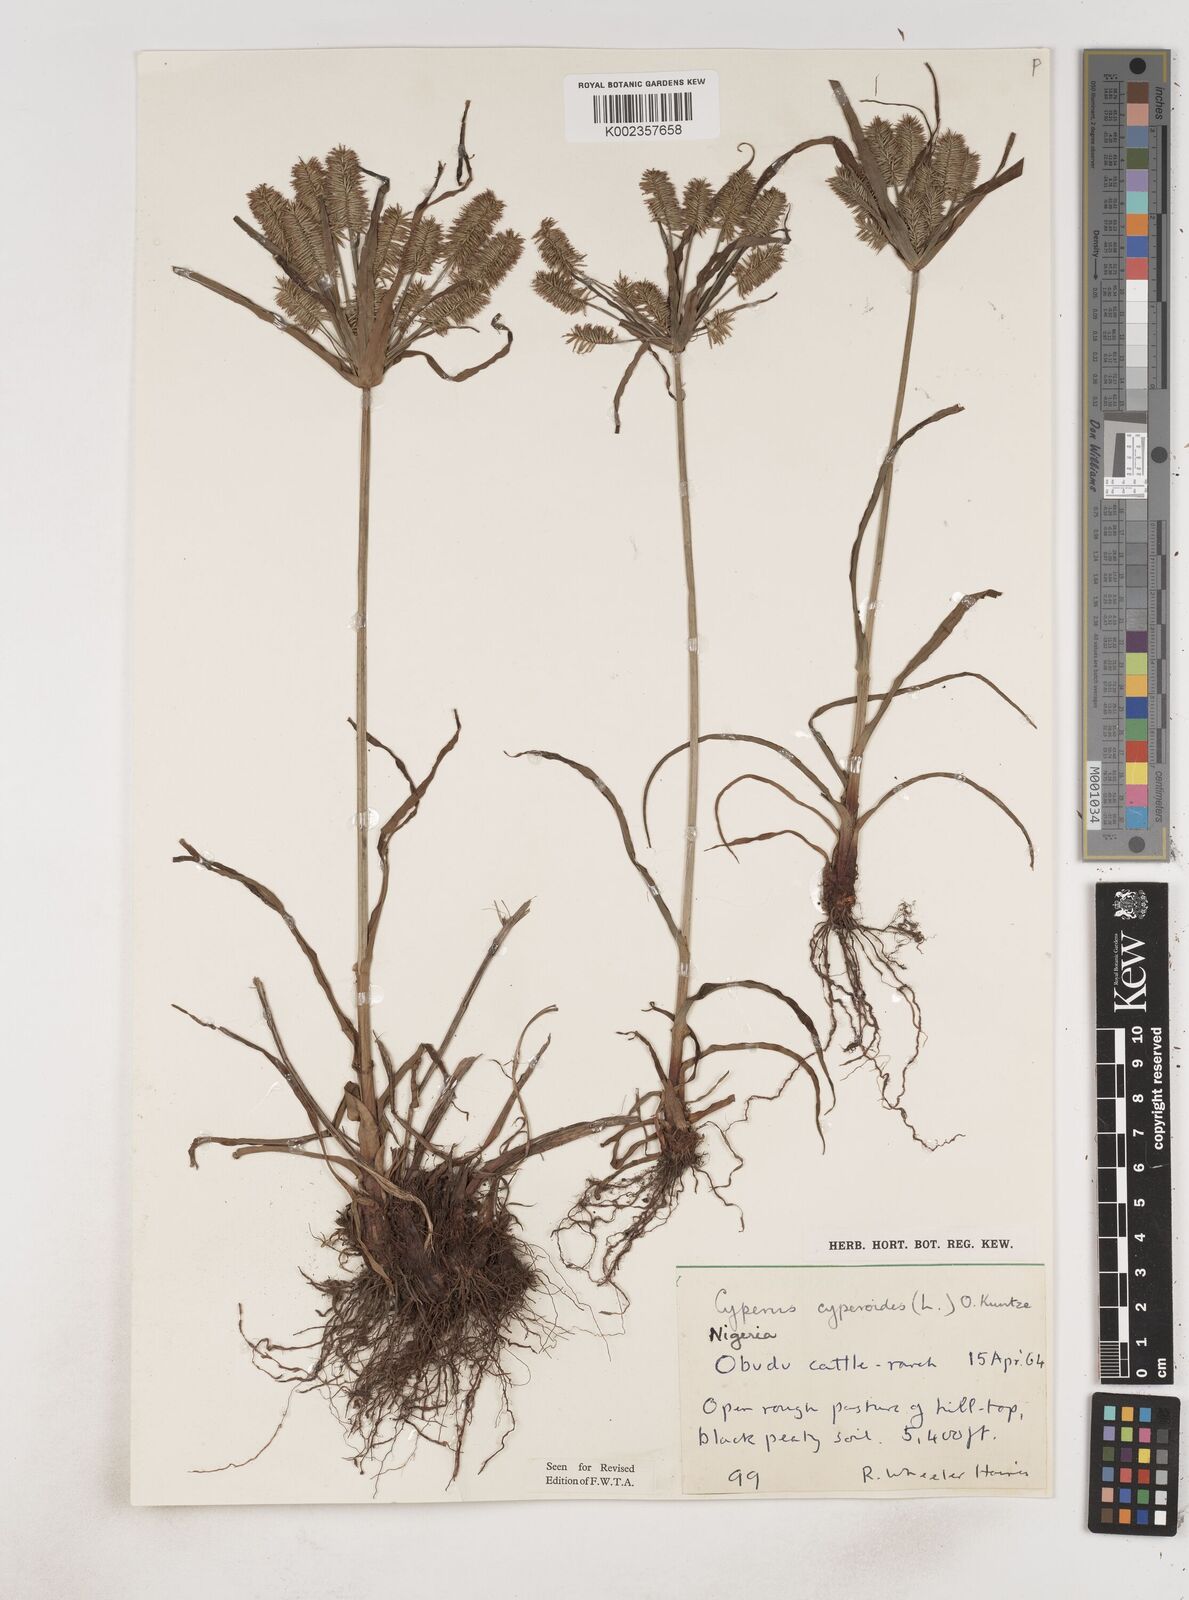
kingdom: Plantae
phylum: Tracheophyta
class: Liliopsida
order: Poales
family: Cyperaceae
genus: Cyperus
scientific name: Cyperus cyperoides
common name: Pacific island flat sedge
